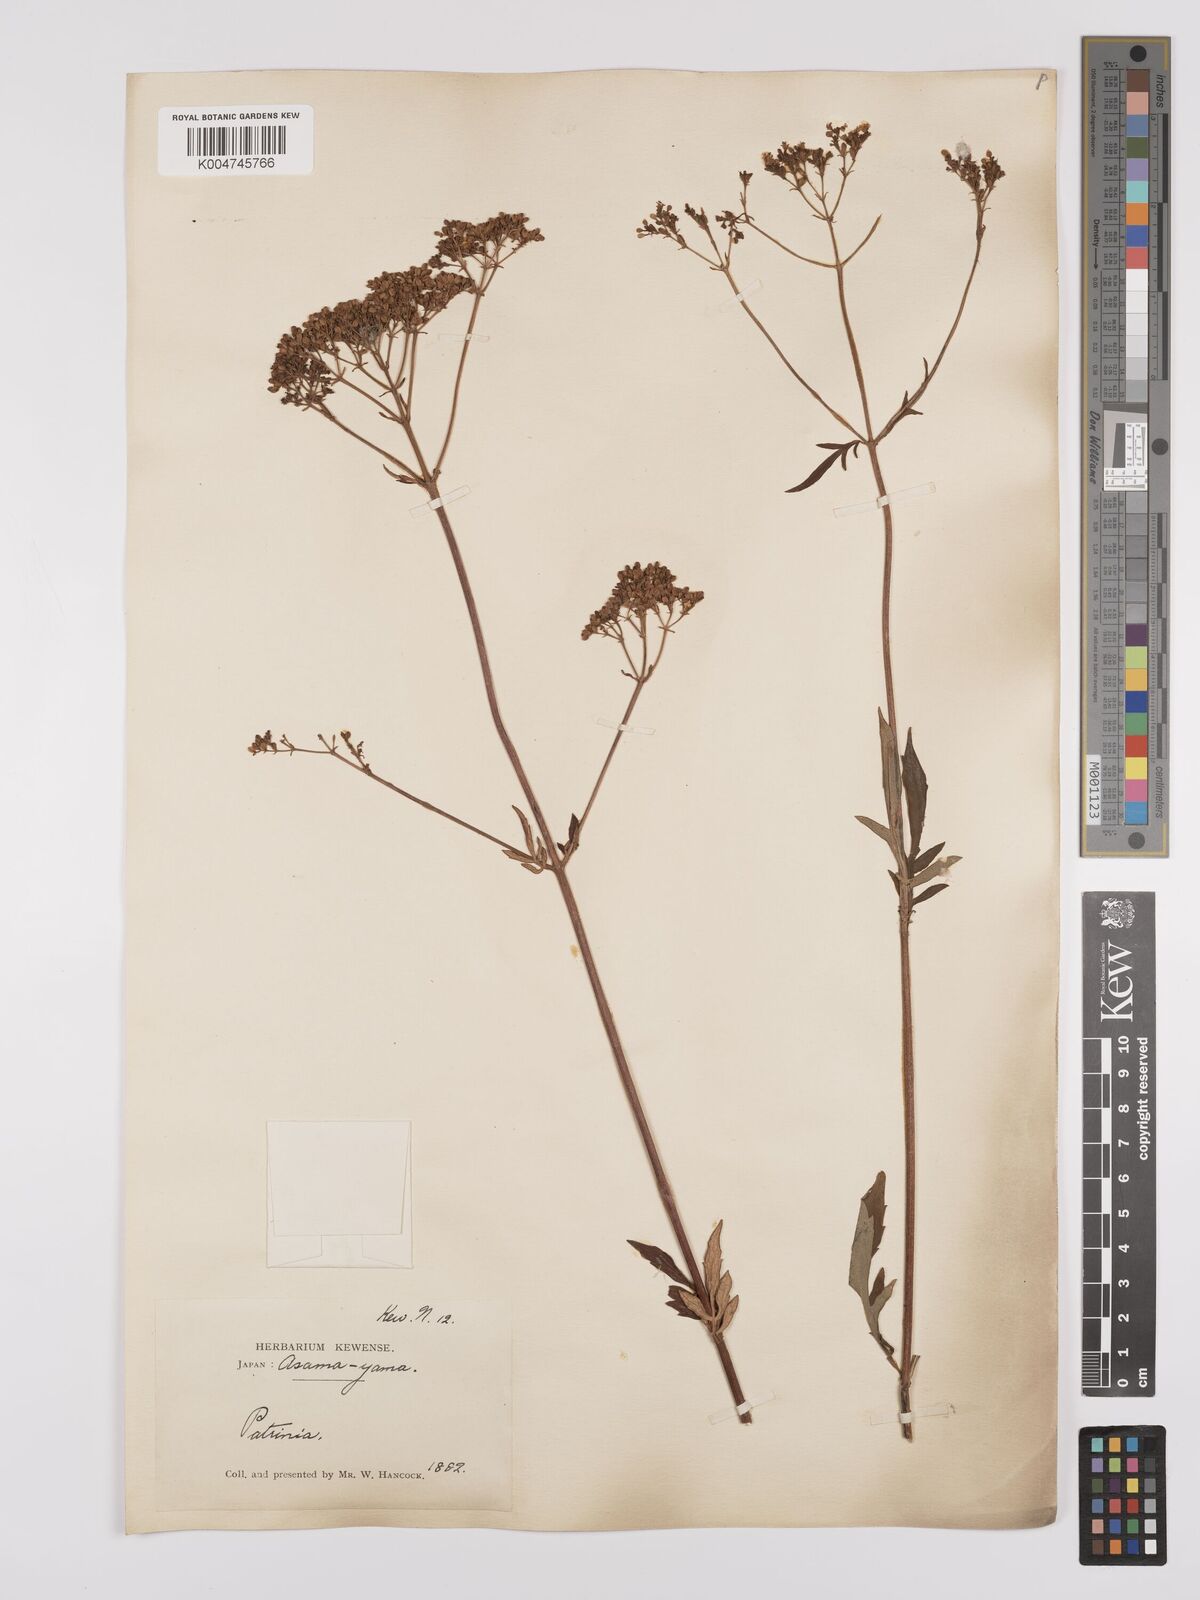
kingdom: Plantae
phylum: Tracheophyta
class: Magnoliopsida
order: Dipsacales
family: Caprifoliaceae
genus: Patrinia
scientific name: Patrinia
